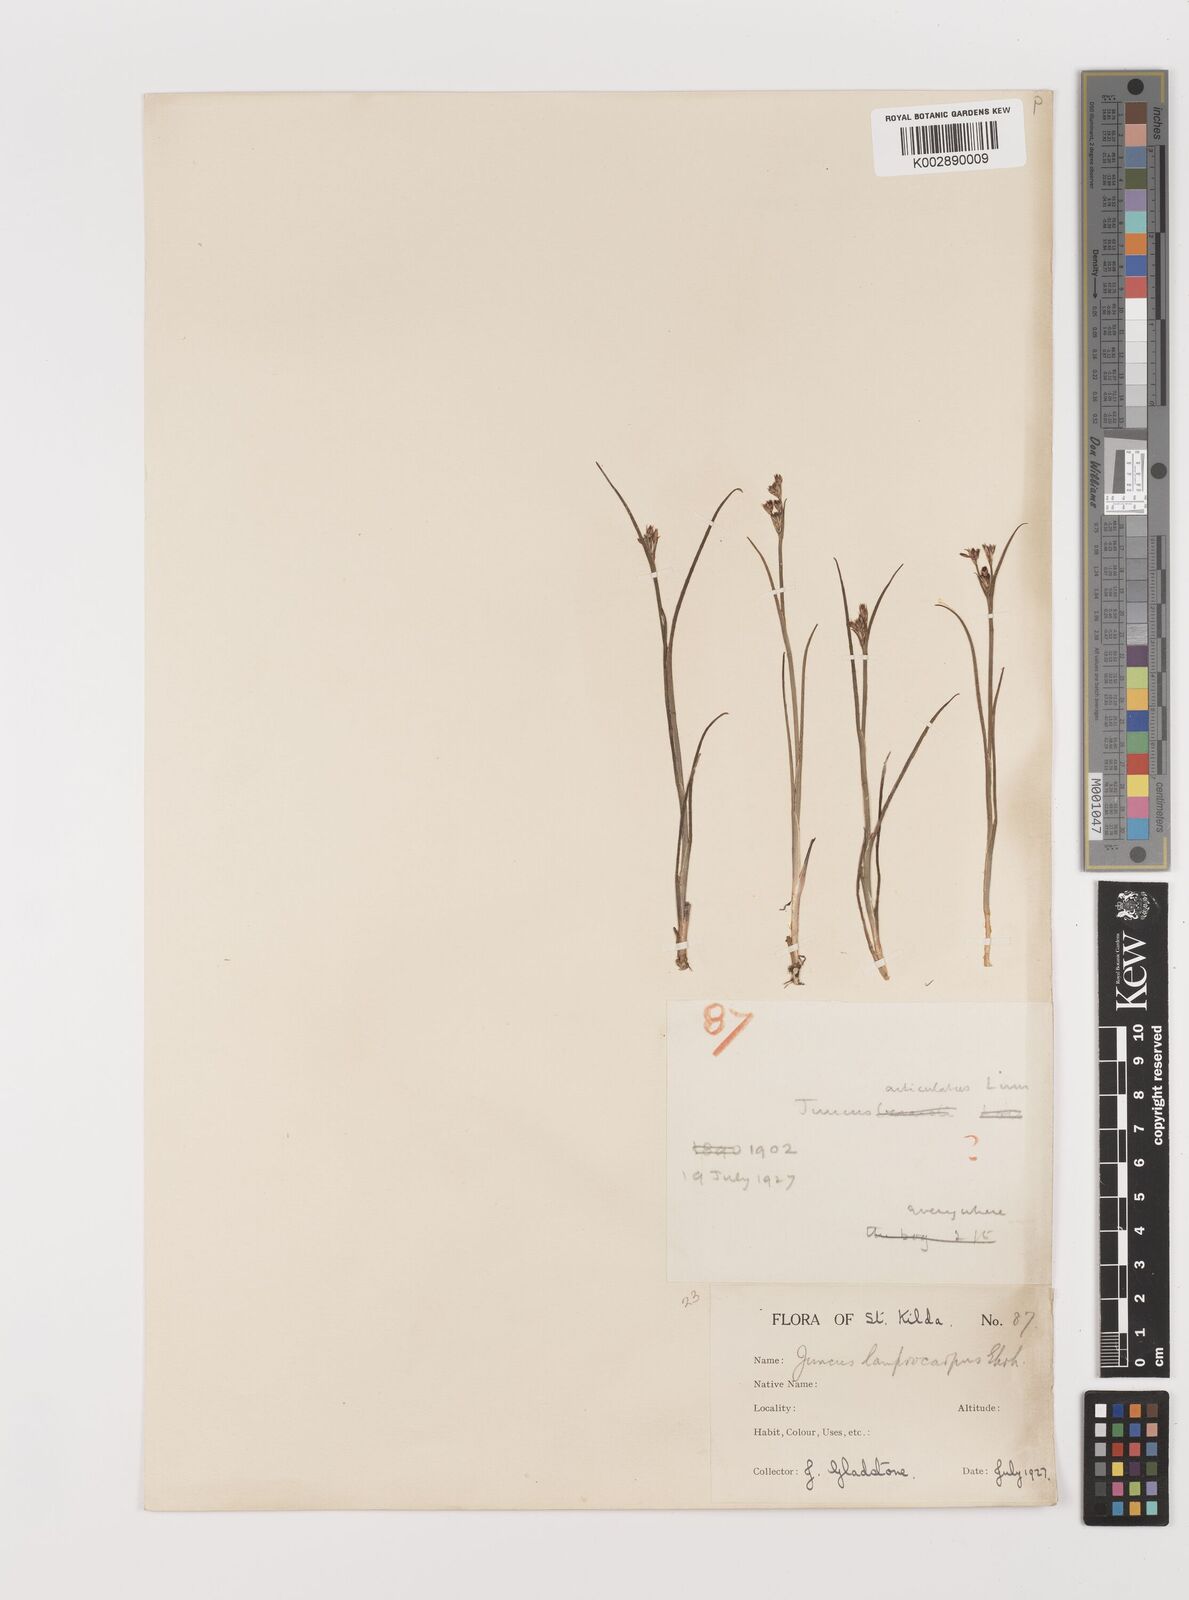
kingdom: Plantae
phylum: Tracheophyta
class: Liliopsida
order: Poales
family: Juncaceae
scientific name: Juncaceae
